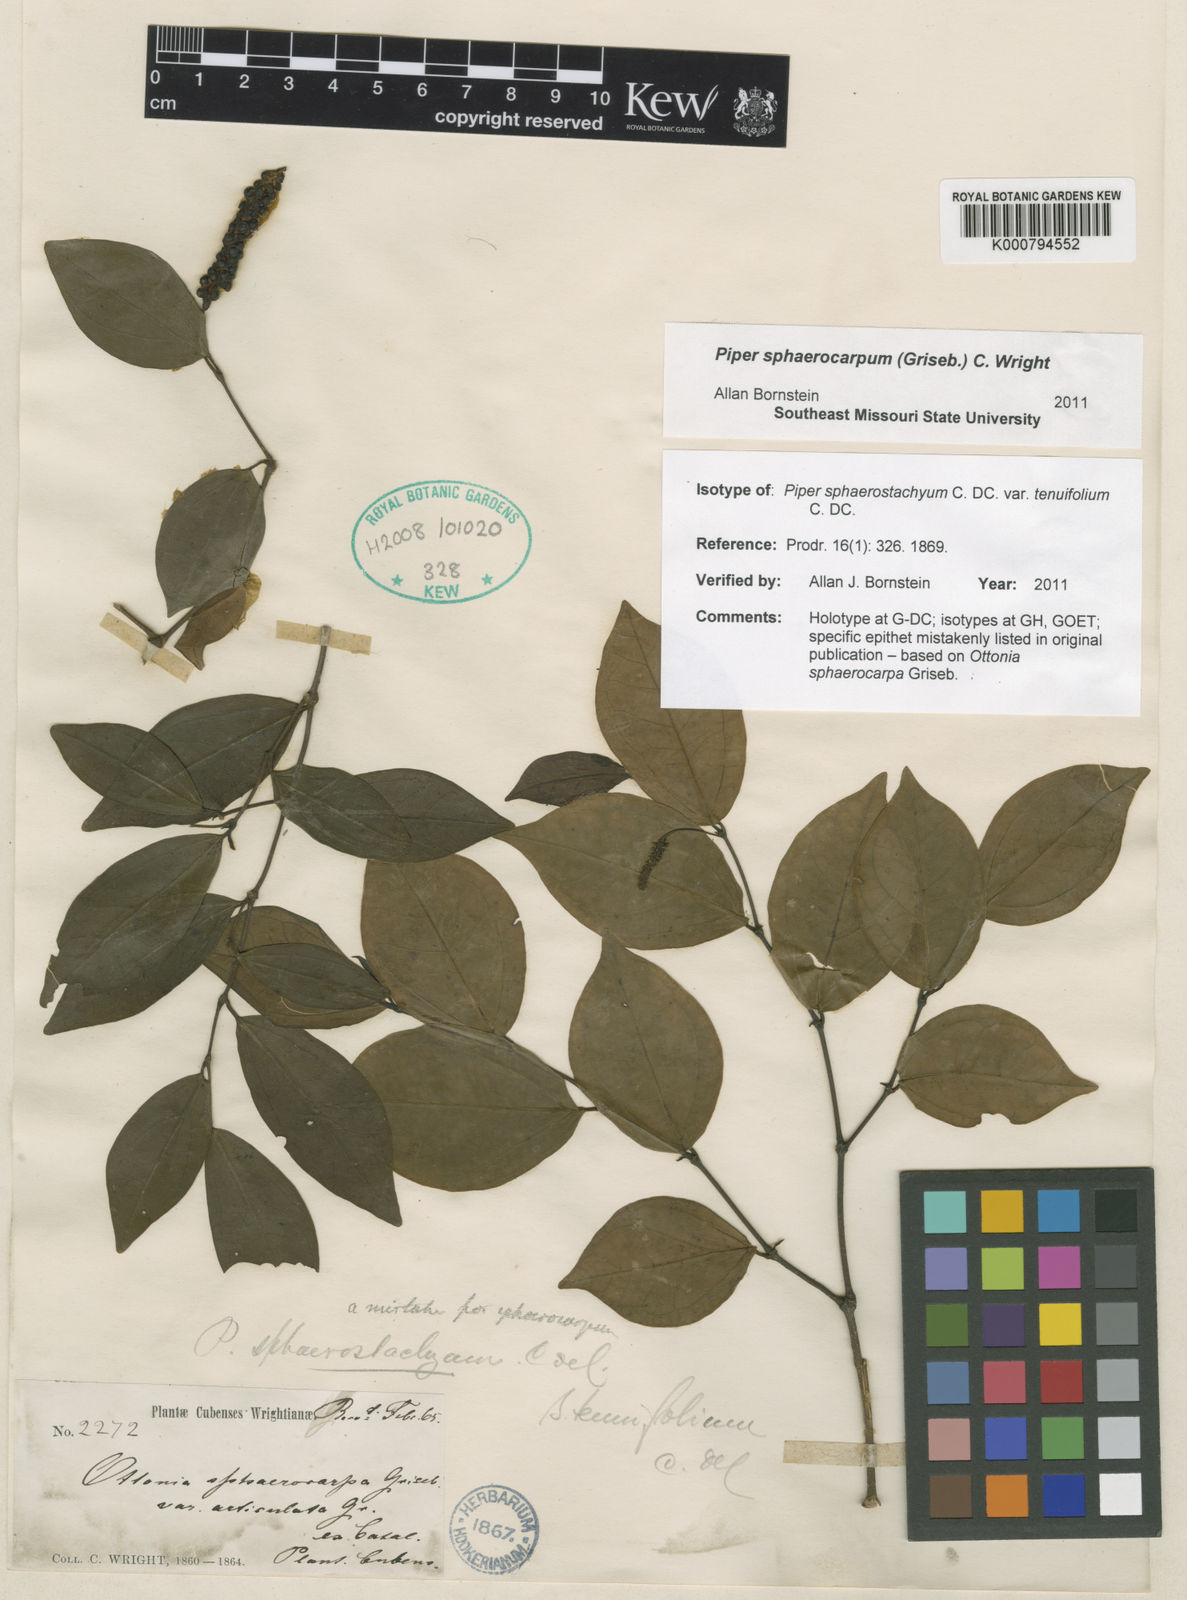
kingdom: Plantae
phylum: Tracheophyta
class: Magnoliopsida
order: Piperales
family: Piperaceae
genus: Piper
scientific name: Piper sphaerocarpum
